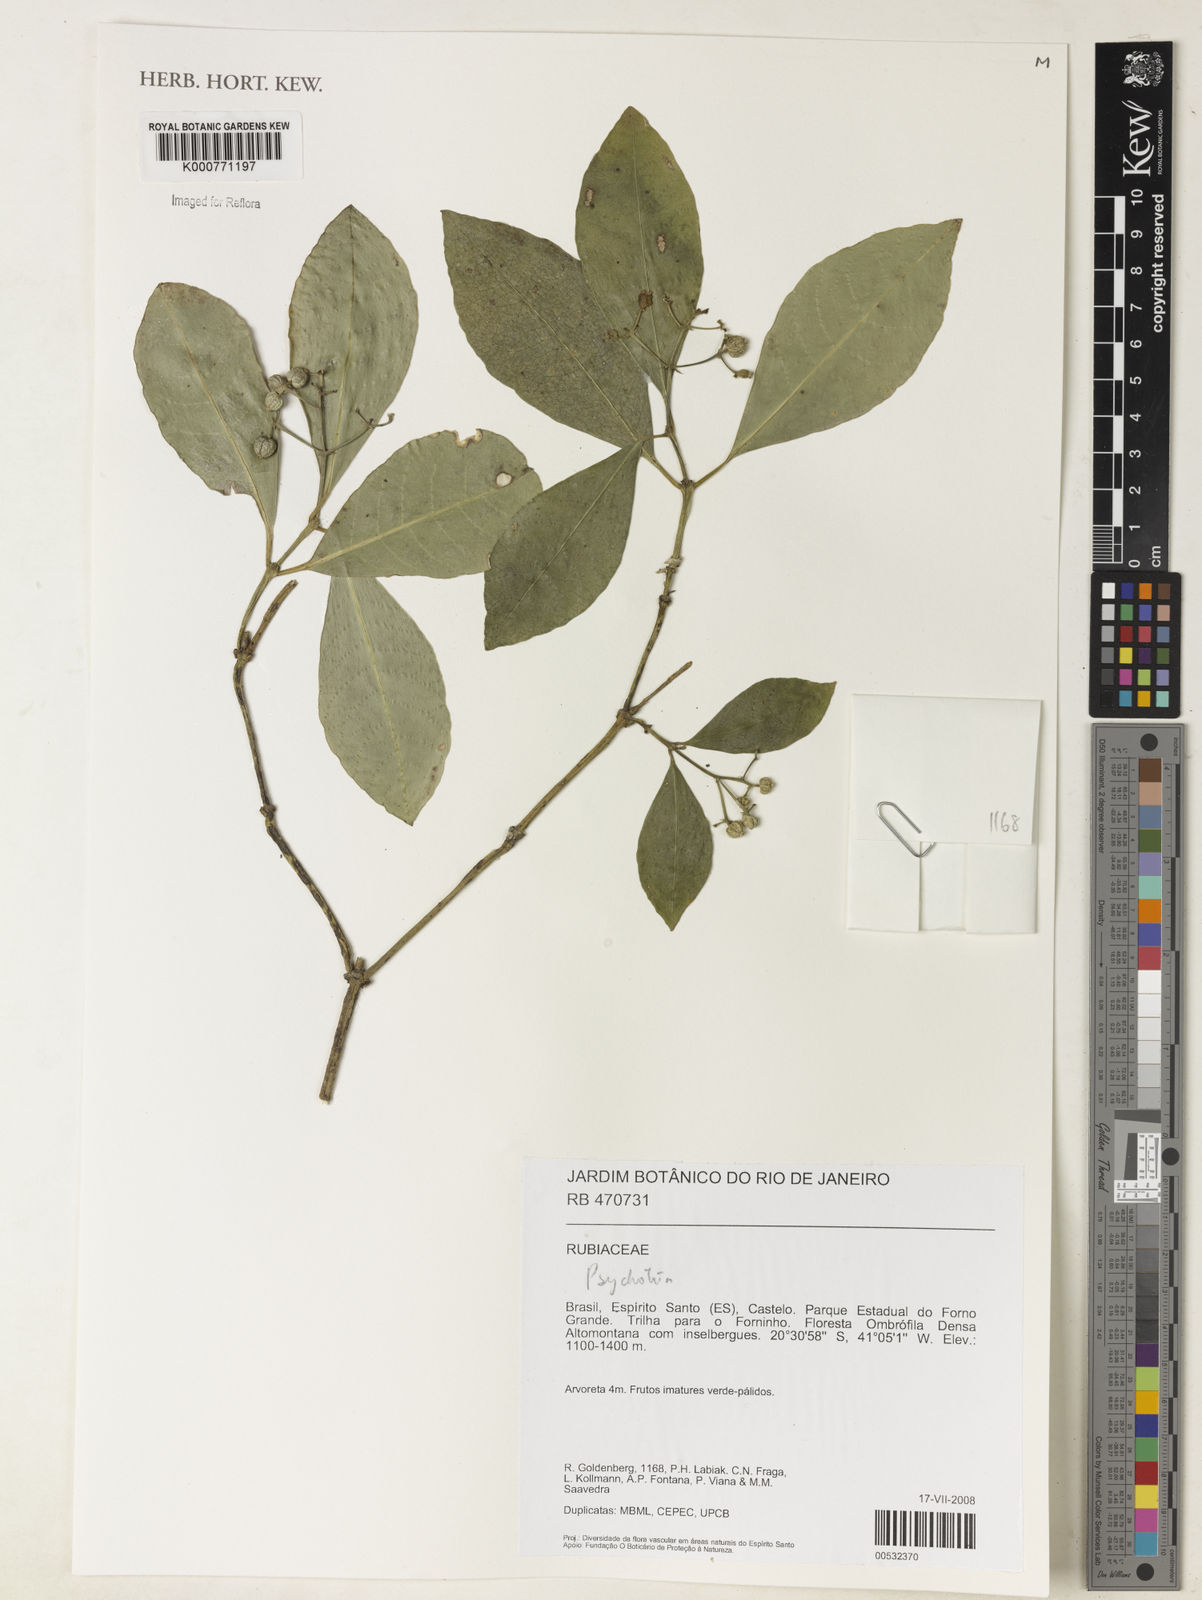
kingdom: Plantae
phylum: Tracheophyta
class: Magnoliopsida
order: Gentianales
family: Rubiaceae
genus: Psychotria
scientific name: Psychotria
